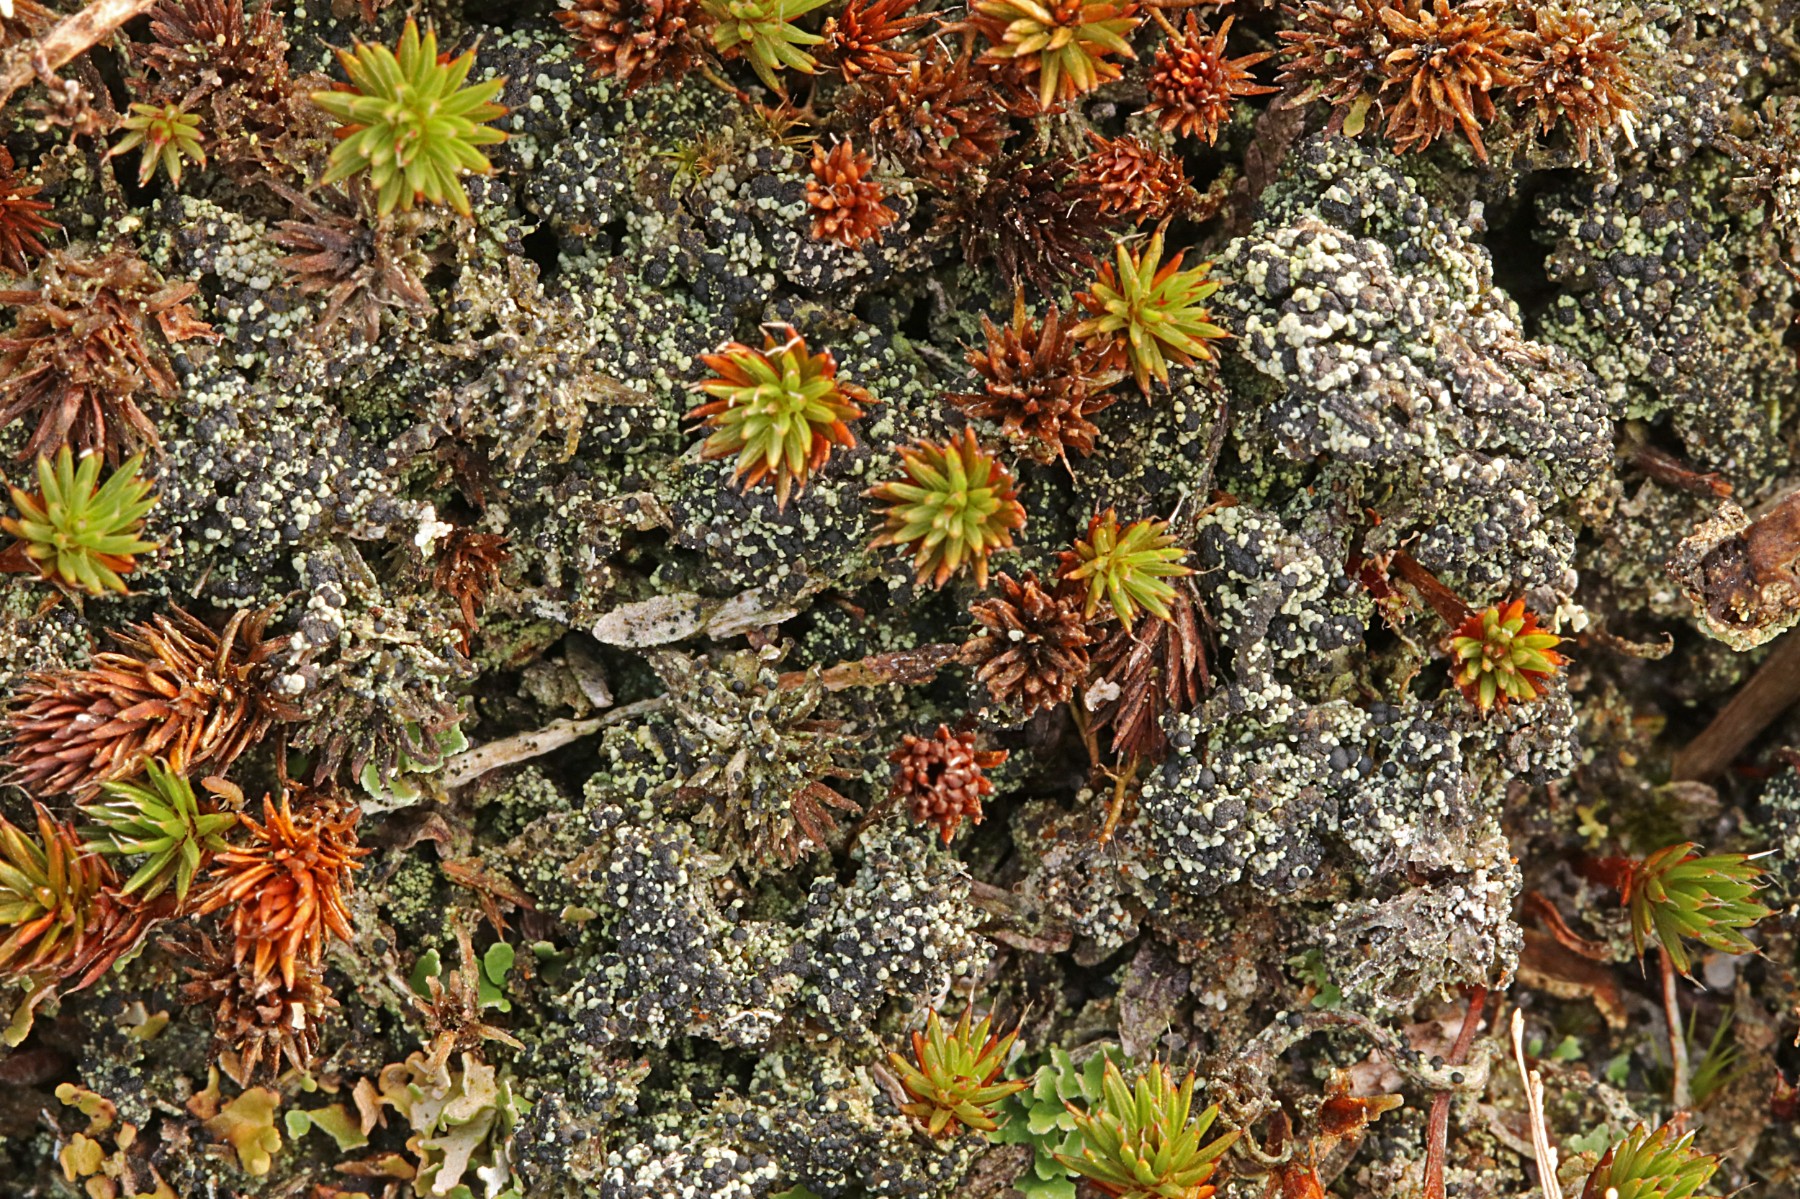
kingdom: Fungi
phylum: Ascomycota
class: Lecanoromycetes
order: Lecanorales
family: Byssolomataceae
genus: Micarea
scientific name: Micarea lignaria
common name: tørve-knaplav
